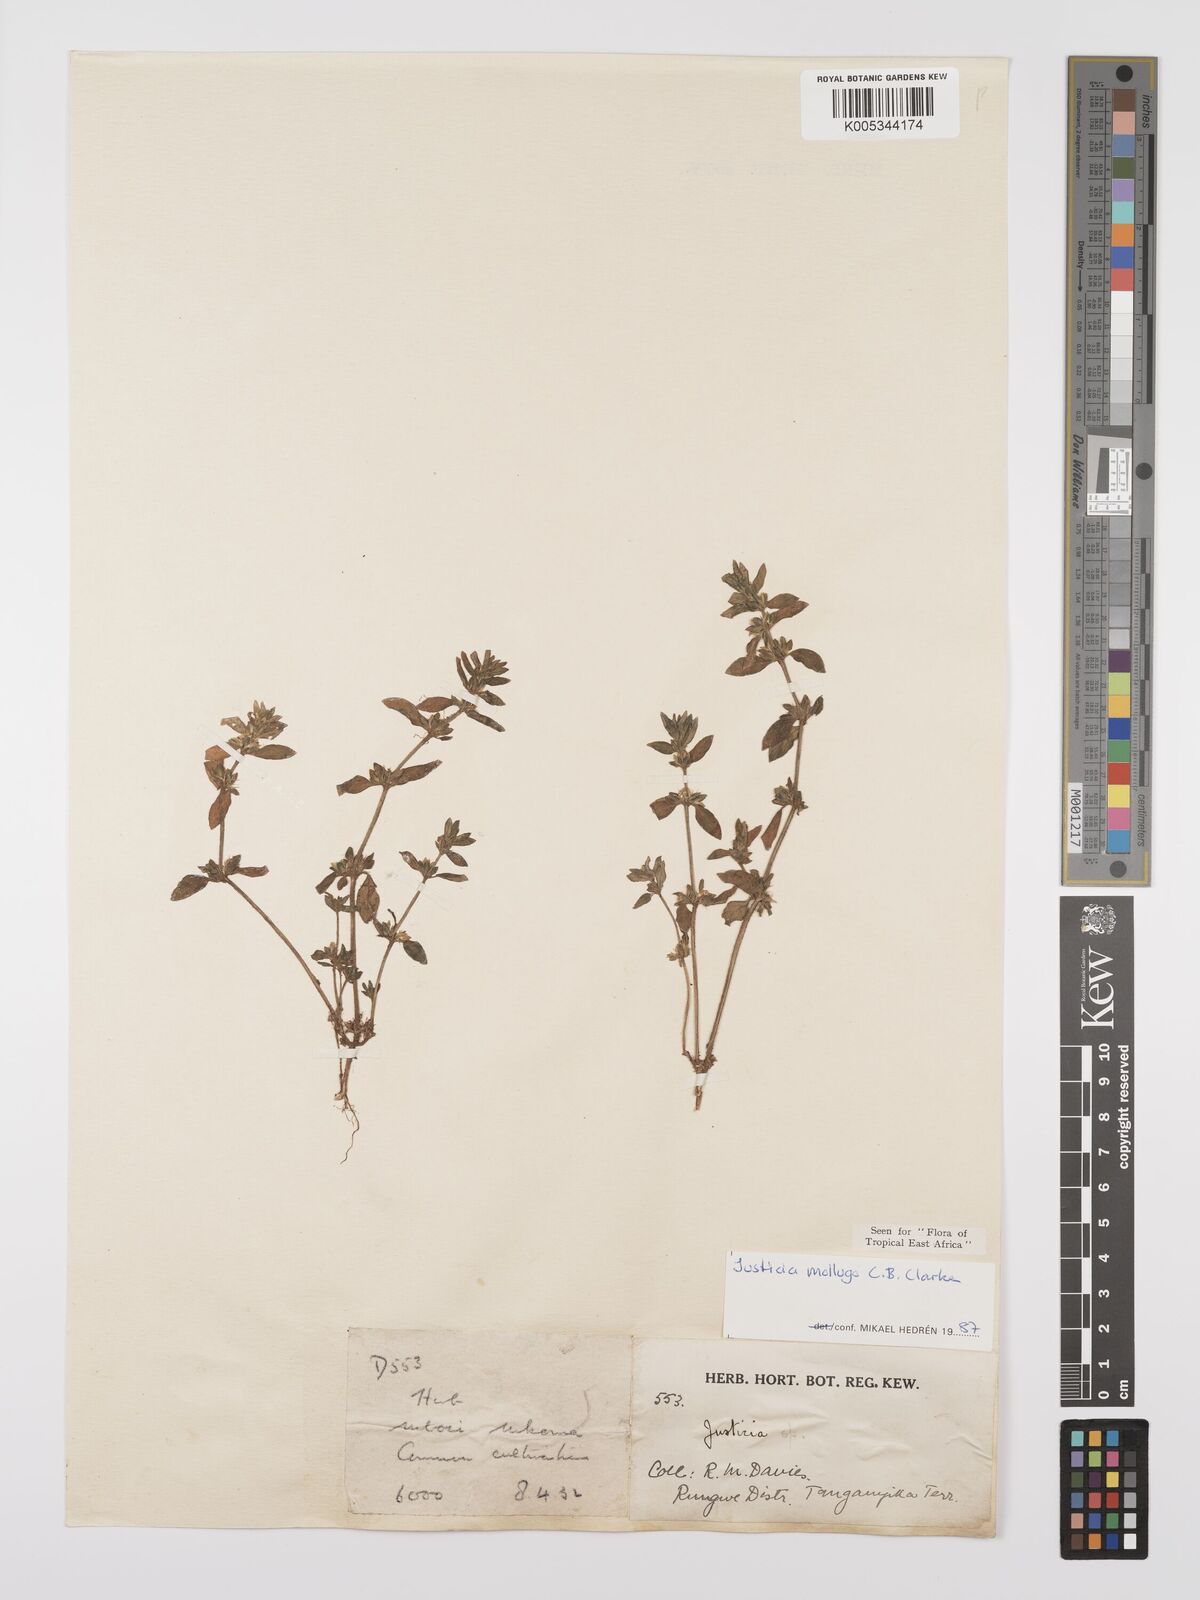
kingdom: Plantae
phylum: Tracheophyta
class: Magnoliopsida
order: Lamiales
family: Acanthaceae
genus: Justicia
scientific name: Justicia mollugo
